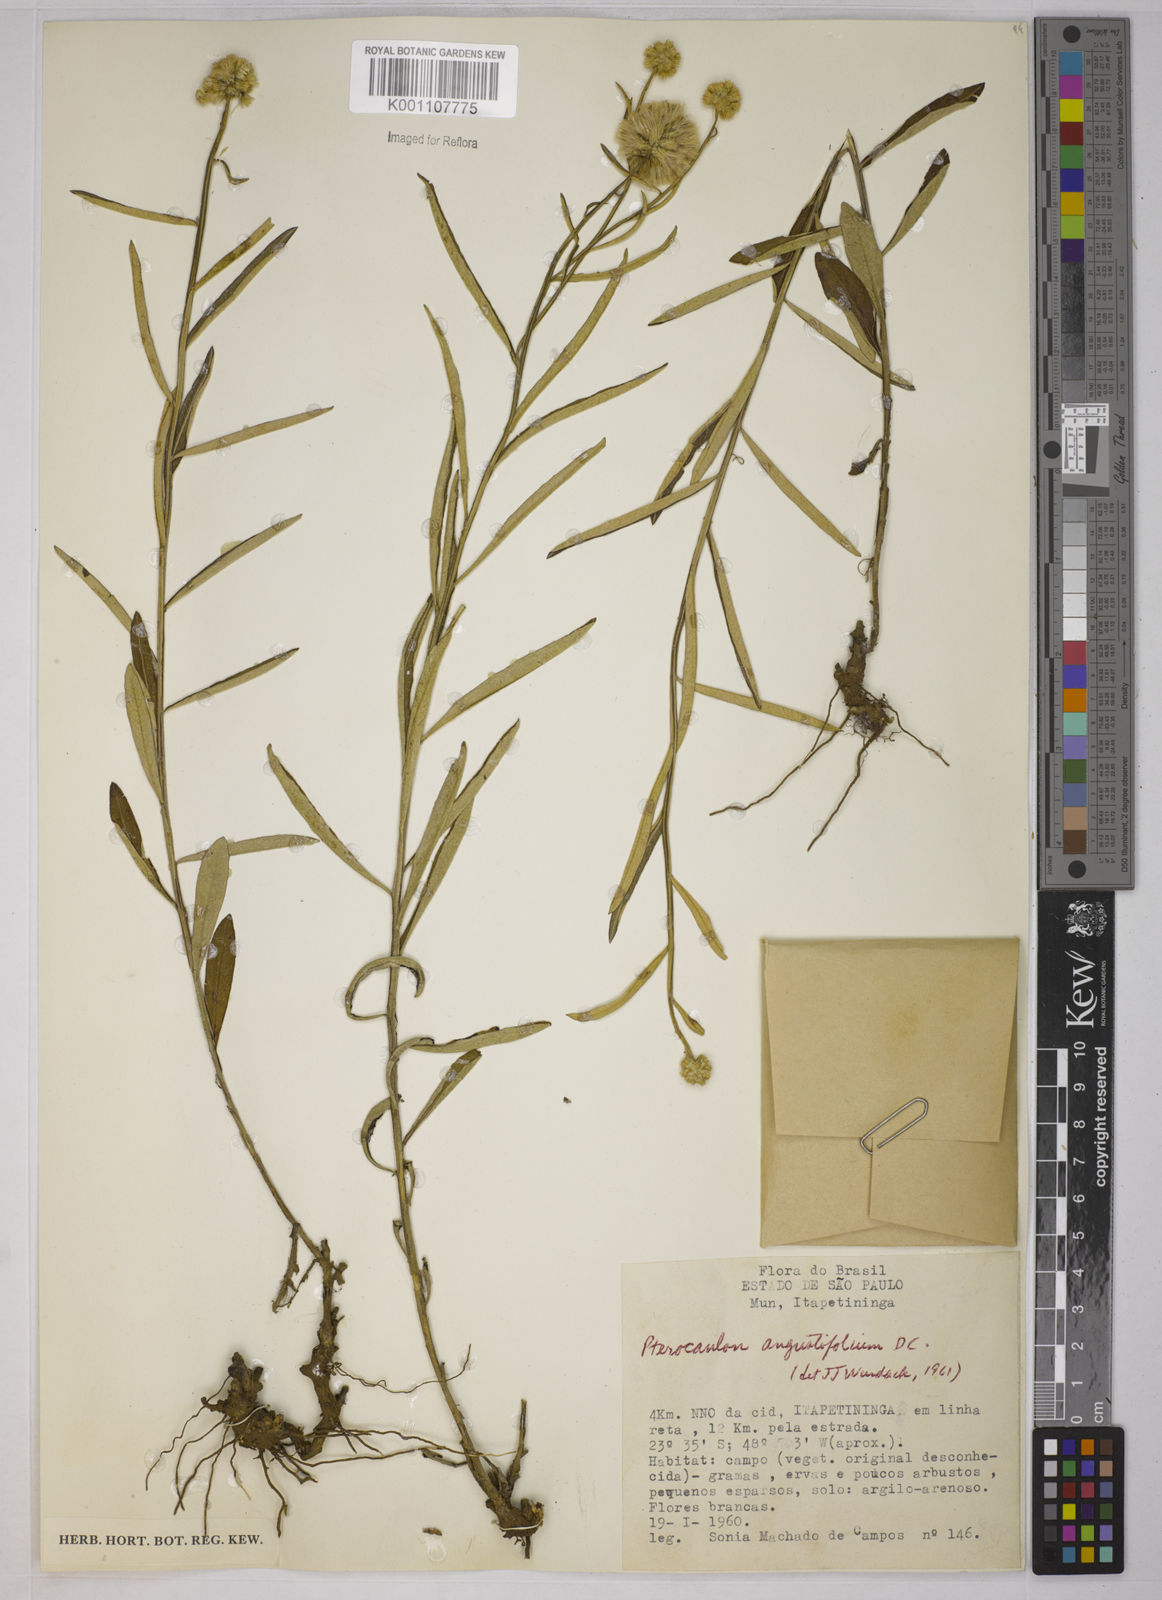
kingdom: Plantae
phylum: Tracheophyta
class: Magnoliopsida
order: Asterales
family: Asteraceae
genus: Pterocaulon
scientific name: Pterocaulon angustifolium
